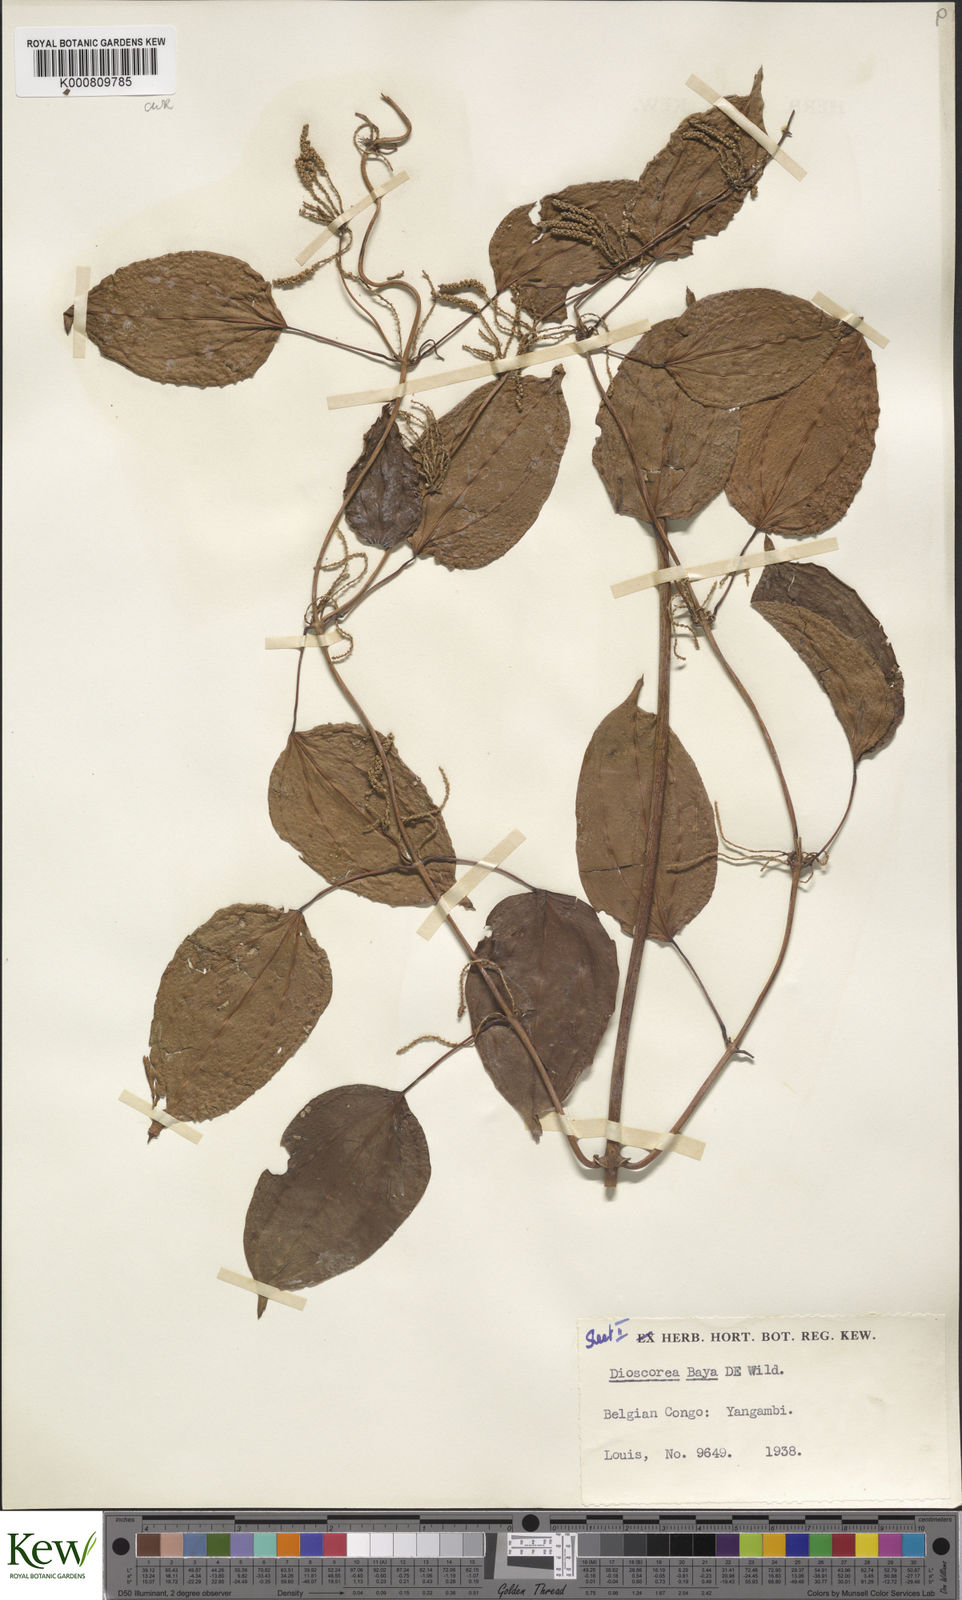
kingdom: Plantae
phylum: Tracheophyta
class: Liliopsida
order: Dioscoreales
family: Dioscoreaceae
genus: Dioscorea
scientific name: Dioscorea baya
